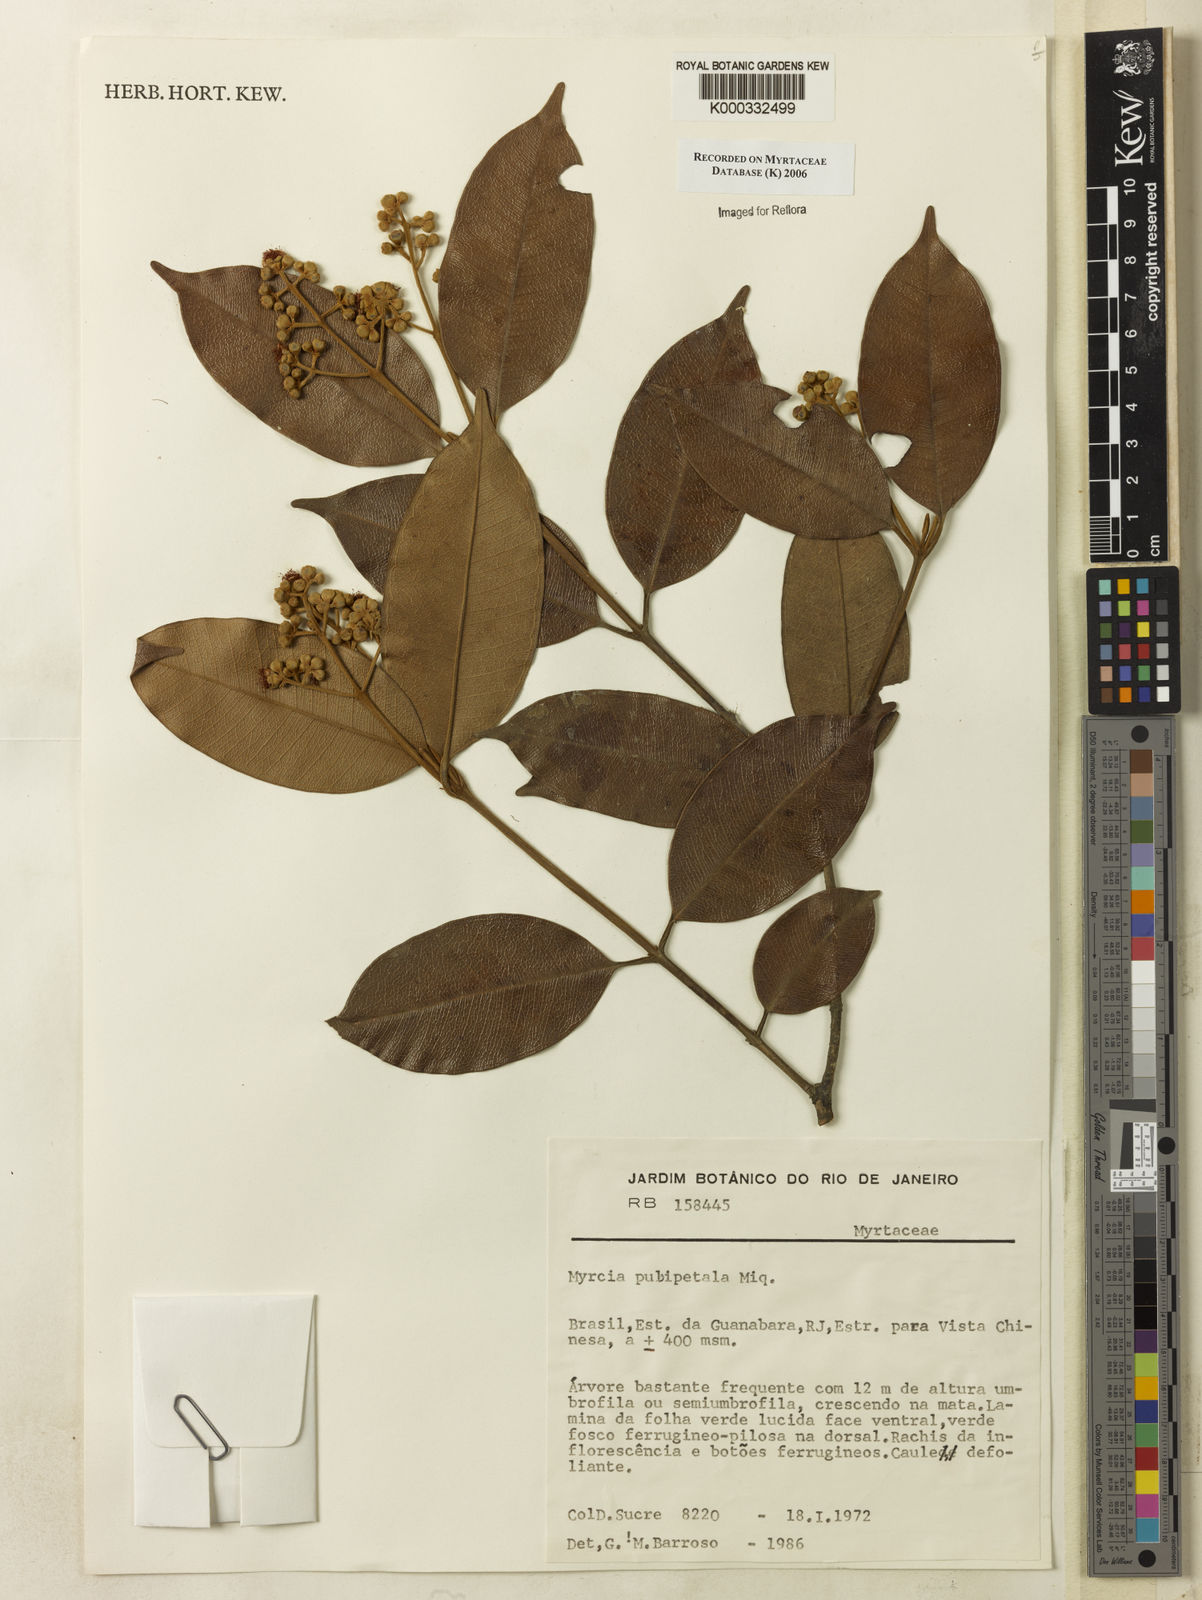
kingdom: Plantae
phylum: Tracheophyta
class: Magnoliopsida
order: Myrtales
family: Myrtaceae
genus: Myrcia
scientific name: Myrcia pubipetala
